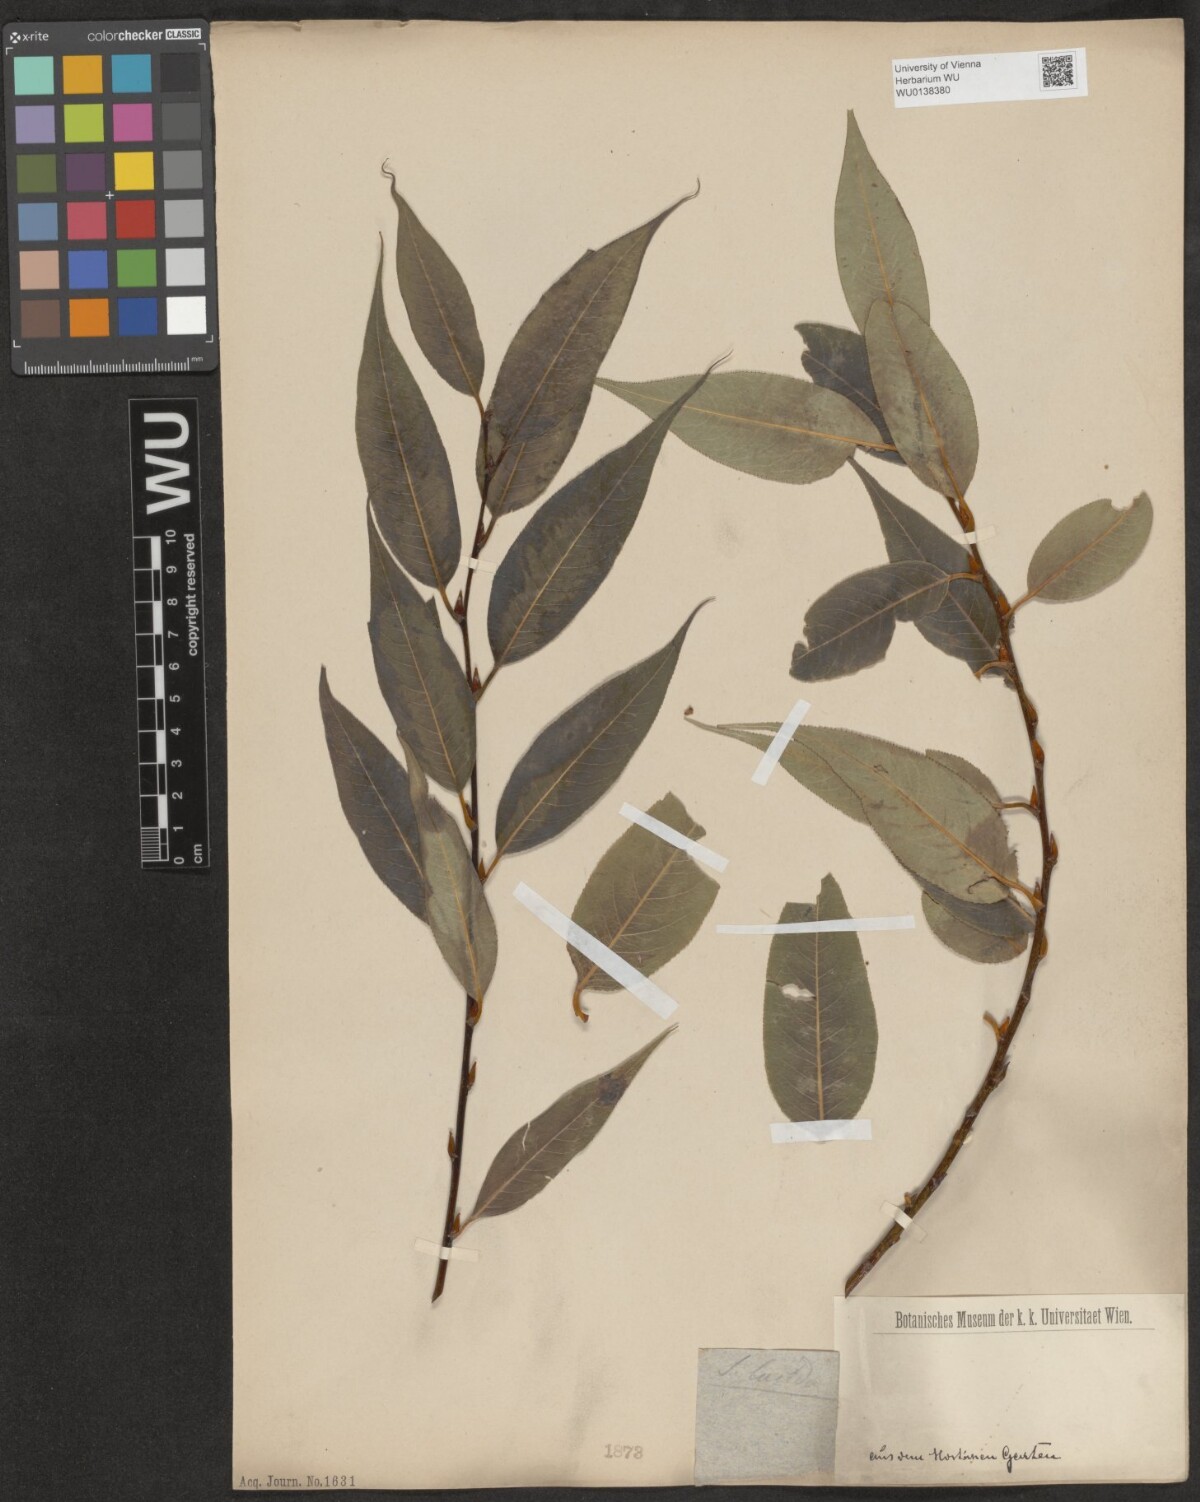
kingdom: Plantae
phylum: Tracheophyta
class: Magnoliopsida
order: Malpighiales
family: Salicaceae
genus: Salix
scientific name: Salix lucida
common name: Shining willow
